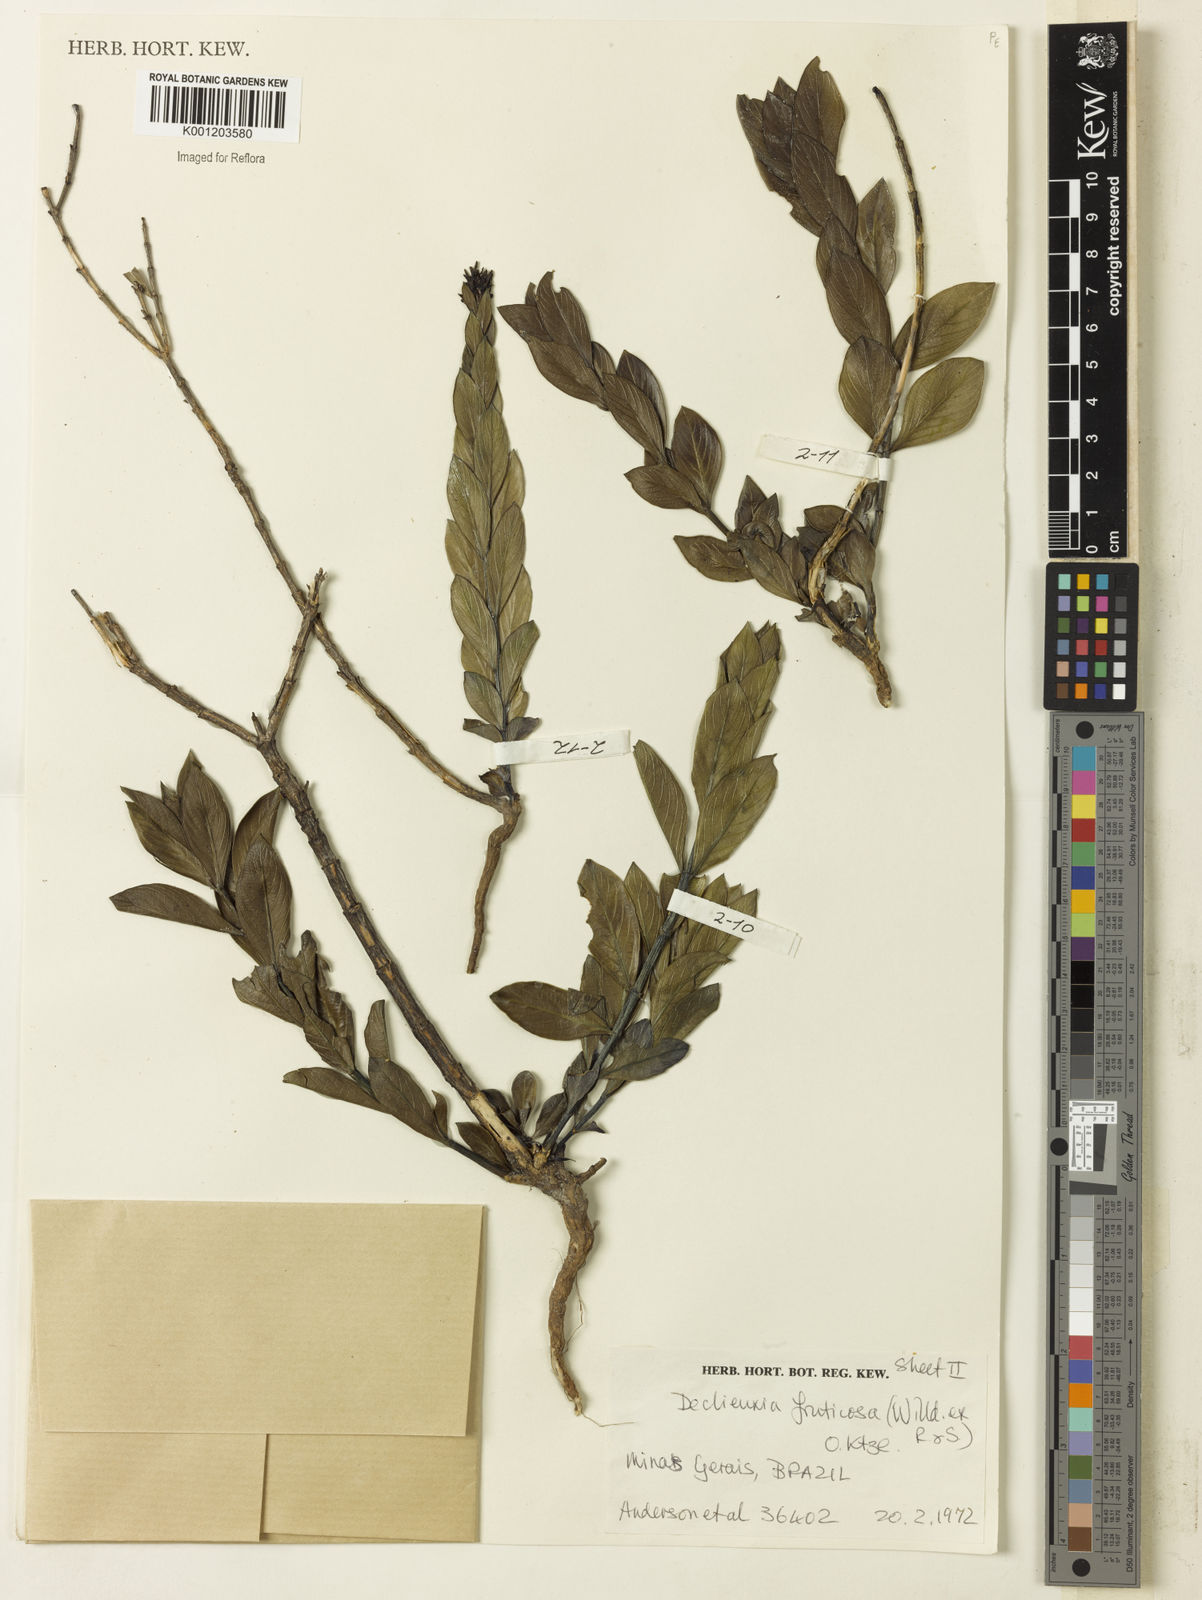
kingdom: Plantae
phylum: Tracheophyta
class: Magnoliopsida
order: Gentianales
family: Rubiaceae
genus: Declieuxia
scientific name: Declieuxia fruticosa
